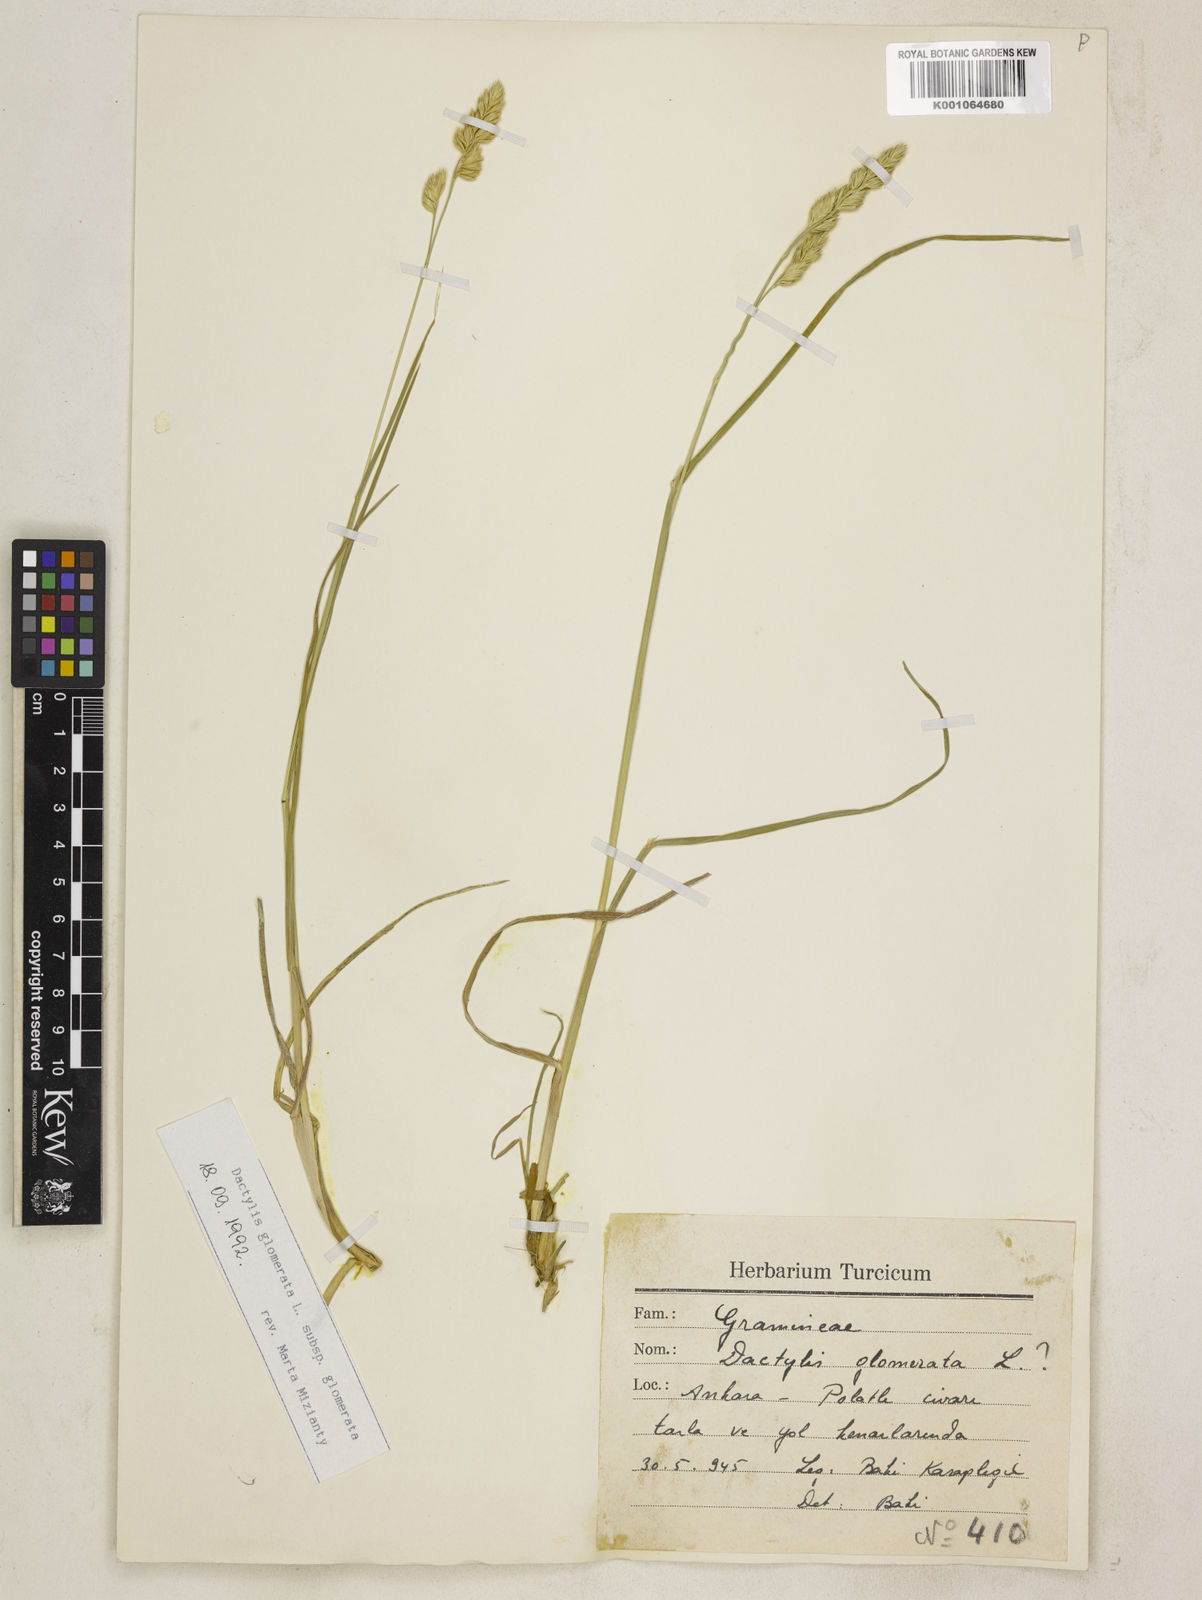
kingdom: Plantae
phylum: Tracheophyta
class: Liliopsida
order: Poales
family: Poaceae
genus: Dactylis
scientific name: Dactylis glomerata
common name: Orchardgrass
